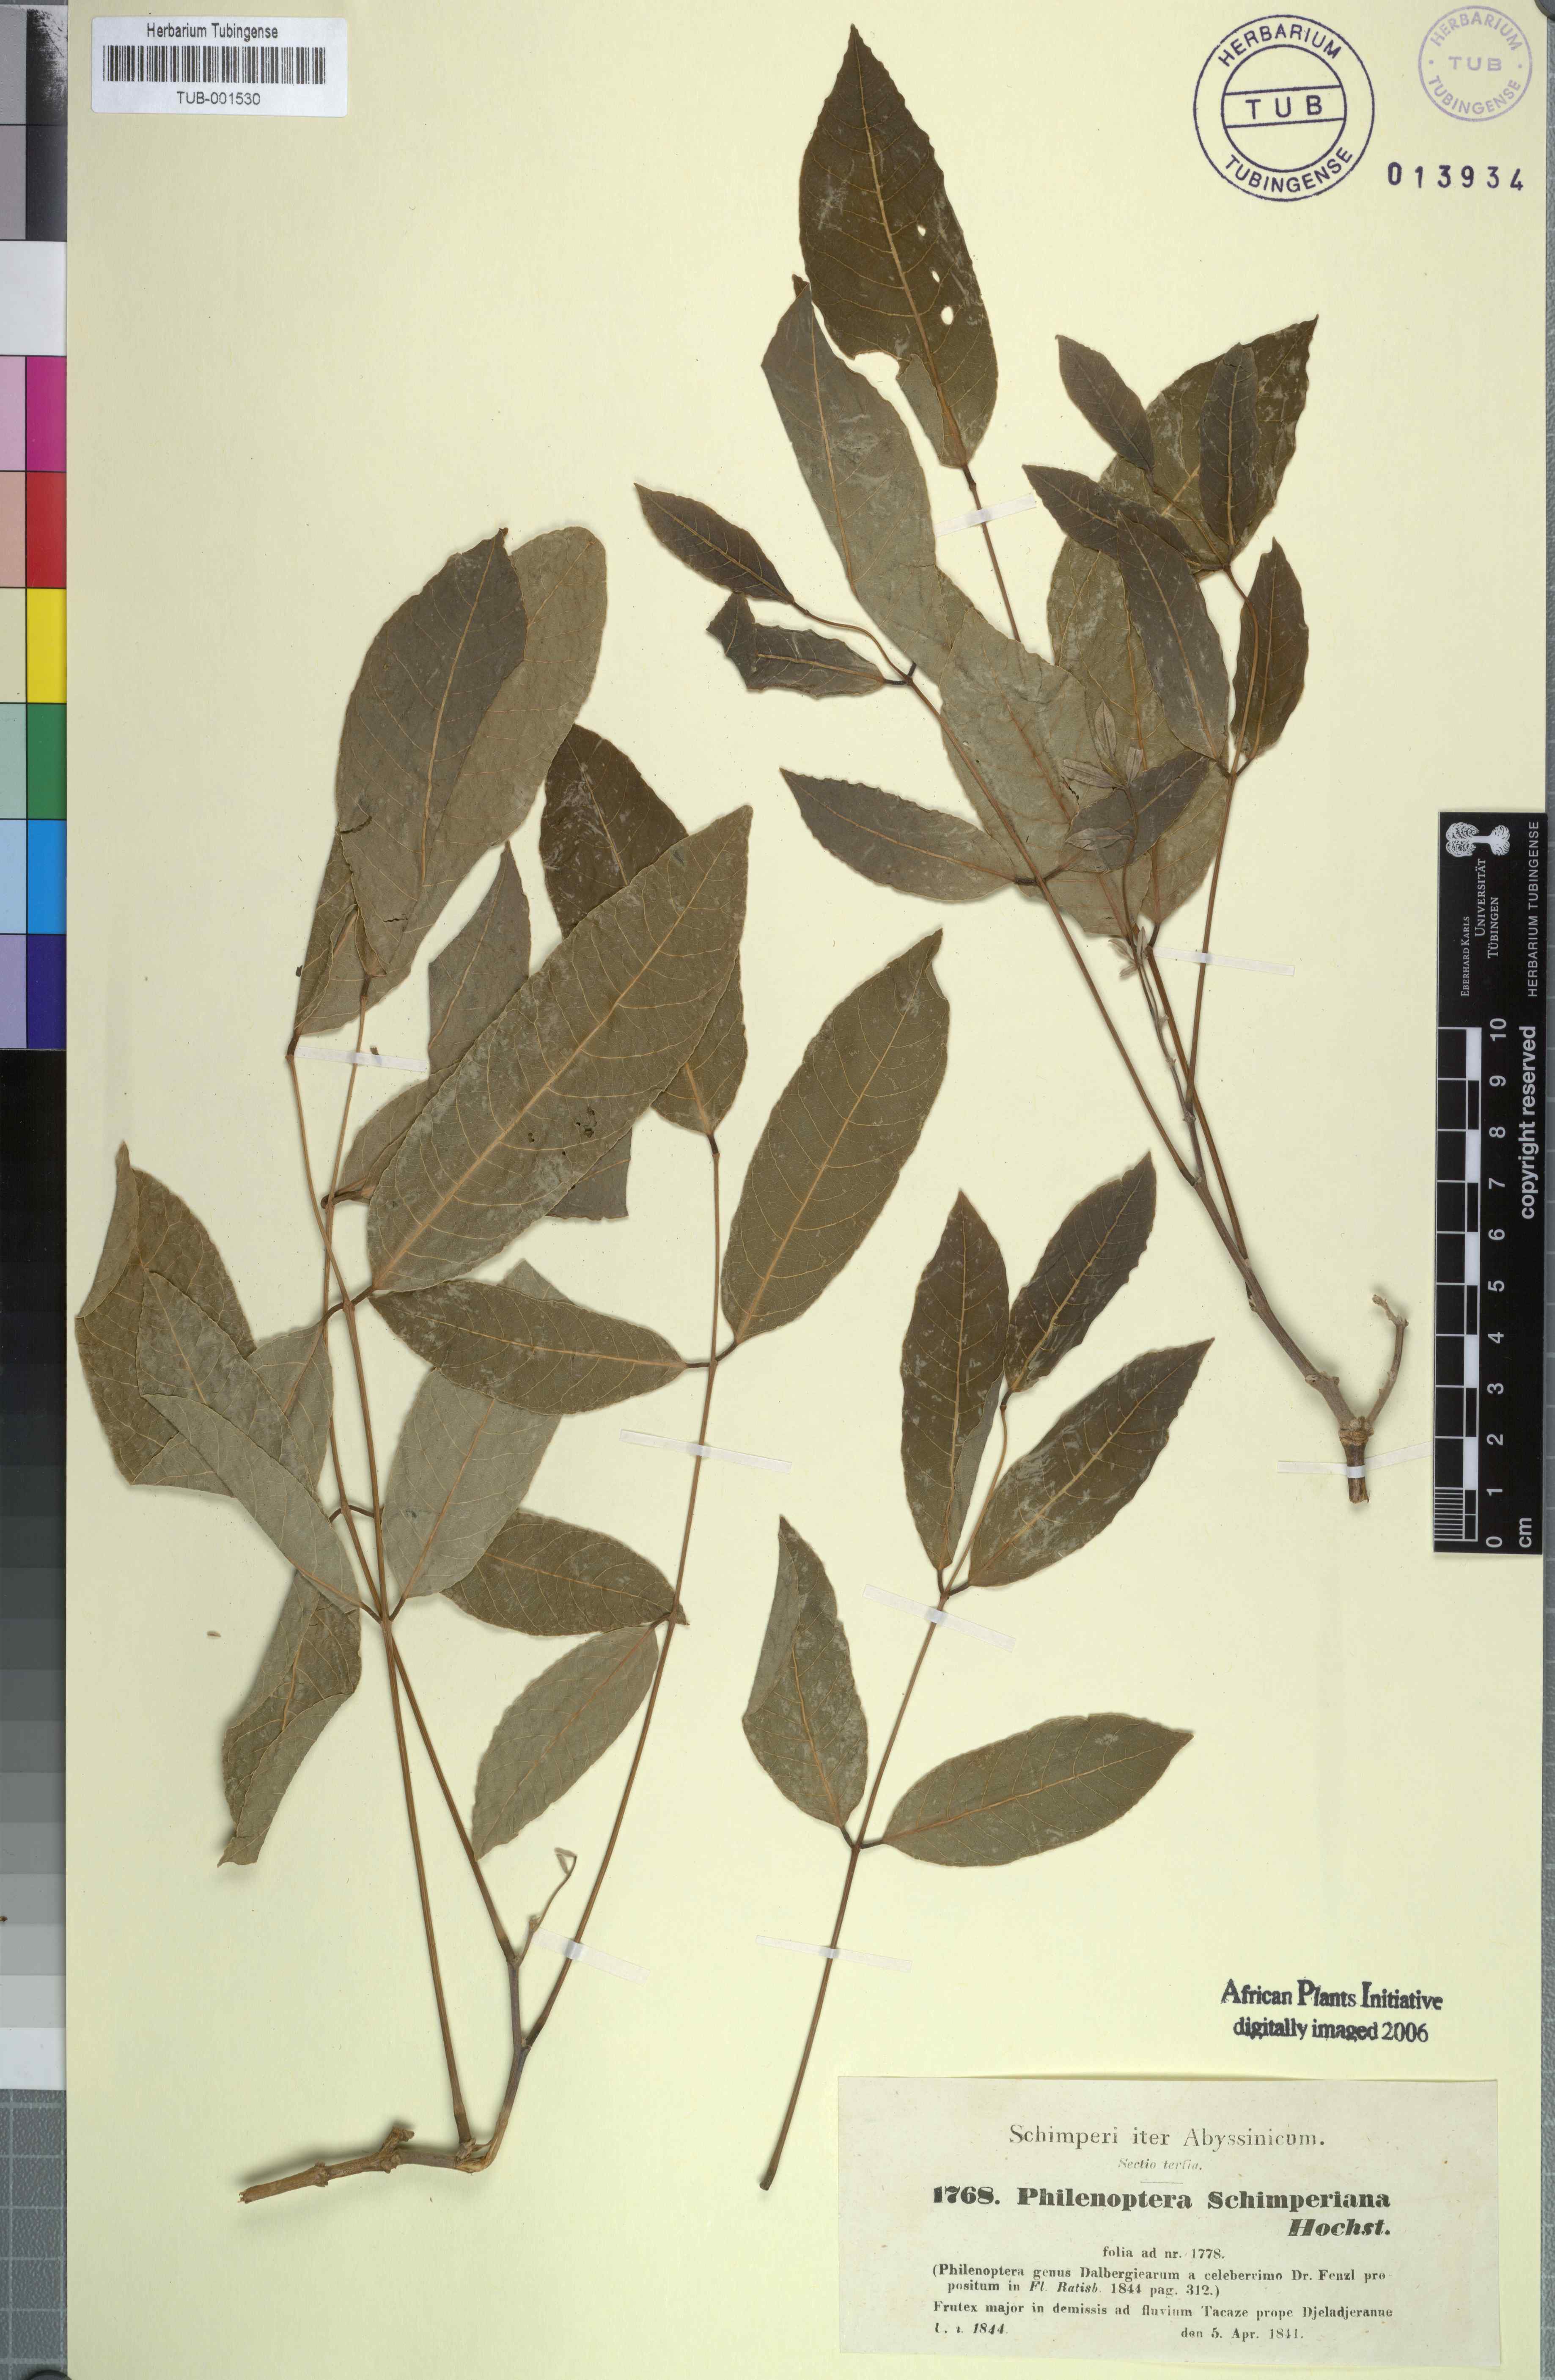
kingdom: Plantae
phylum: Tracheophyta
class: Magnoliopsida
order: Fabales
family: Fabaceae
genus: Philenoptera
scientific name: Philenoptera laxiflora
